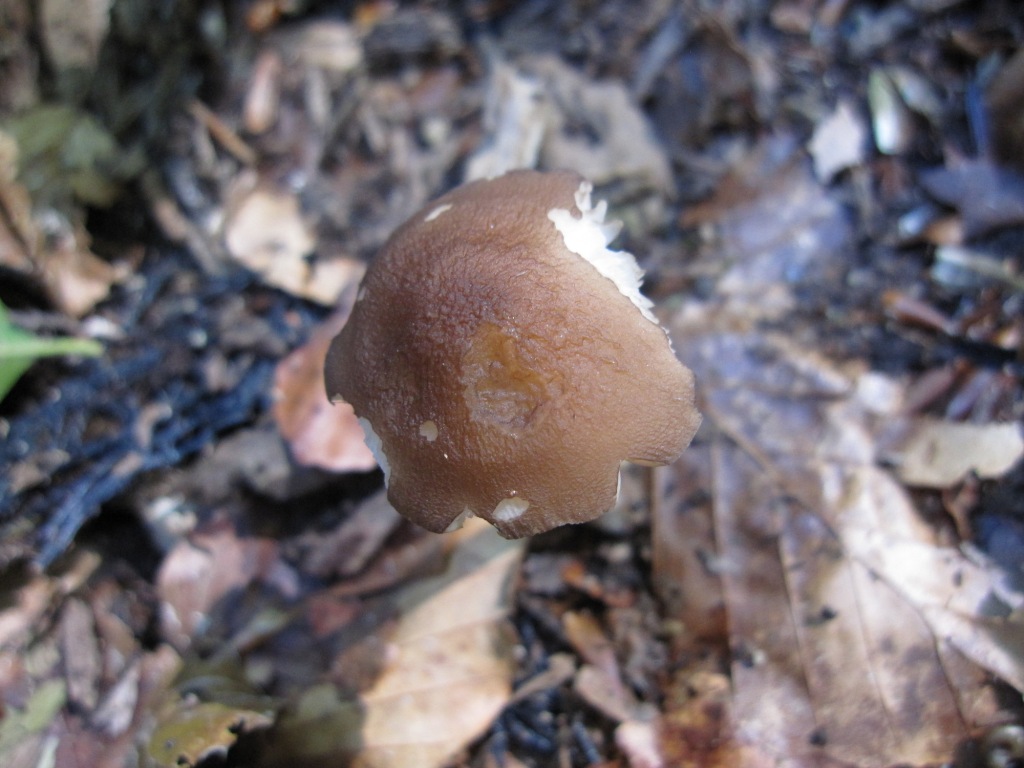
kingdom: Fungi
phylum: Basidiomycota
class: Agaricomycetes
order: Agaricales
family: Pluteaceae
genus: Pluteus
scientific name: Pluteus phlebophorus
